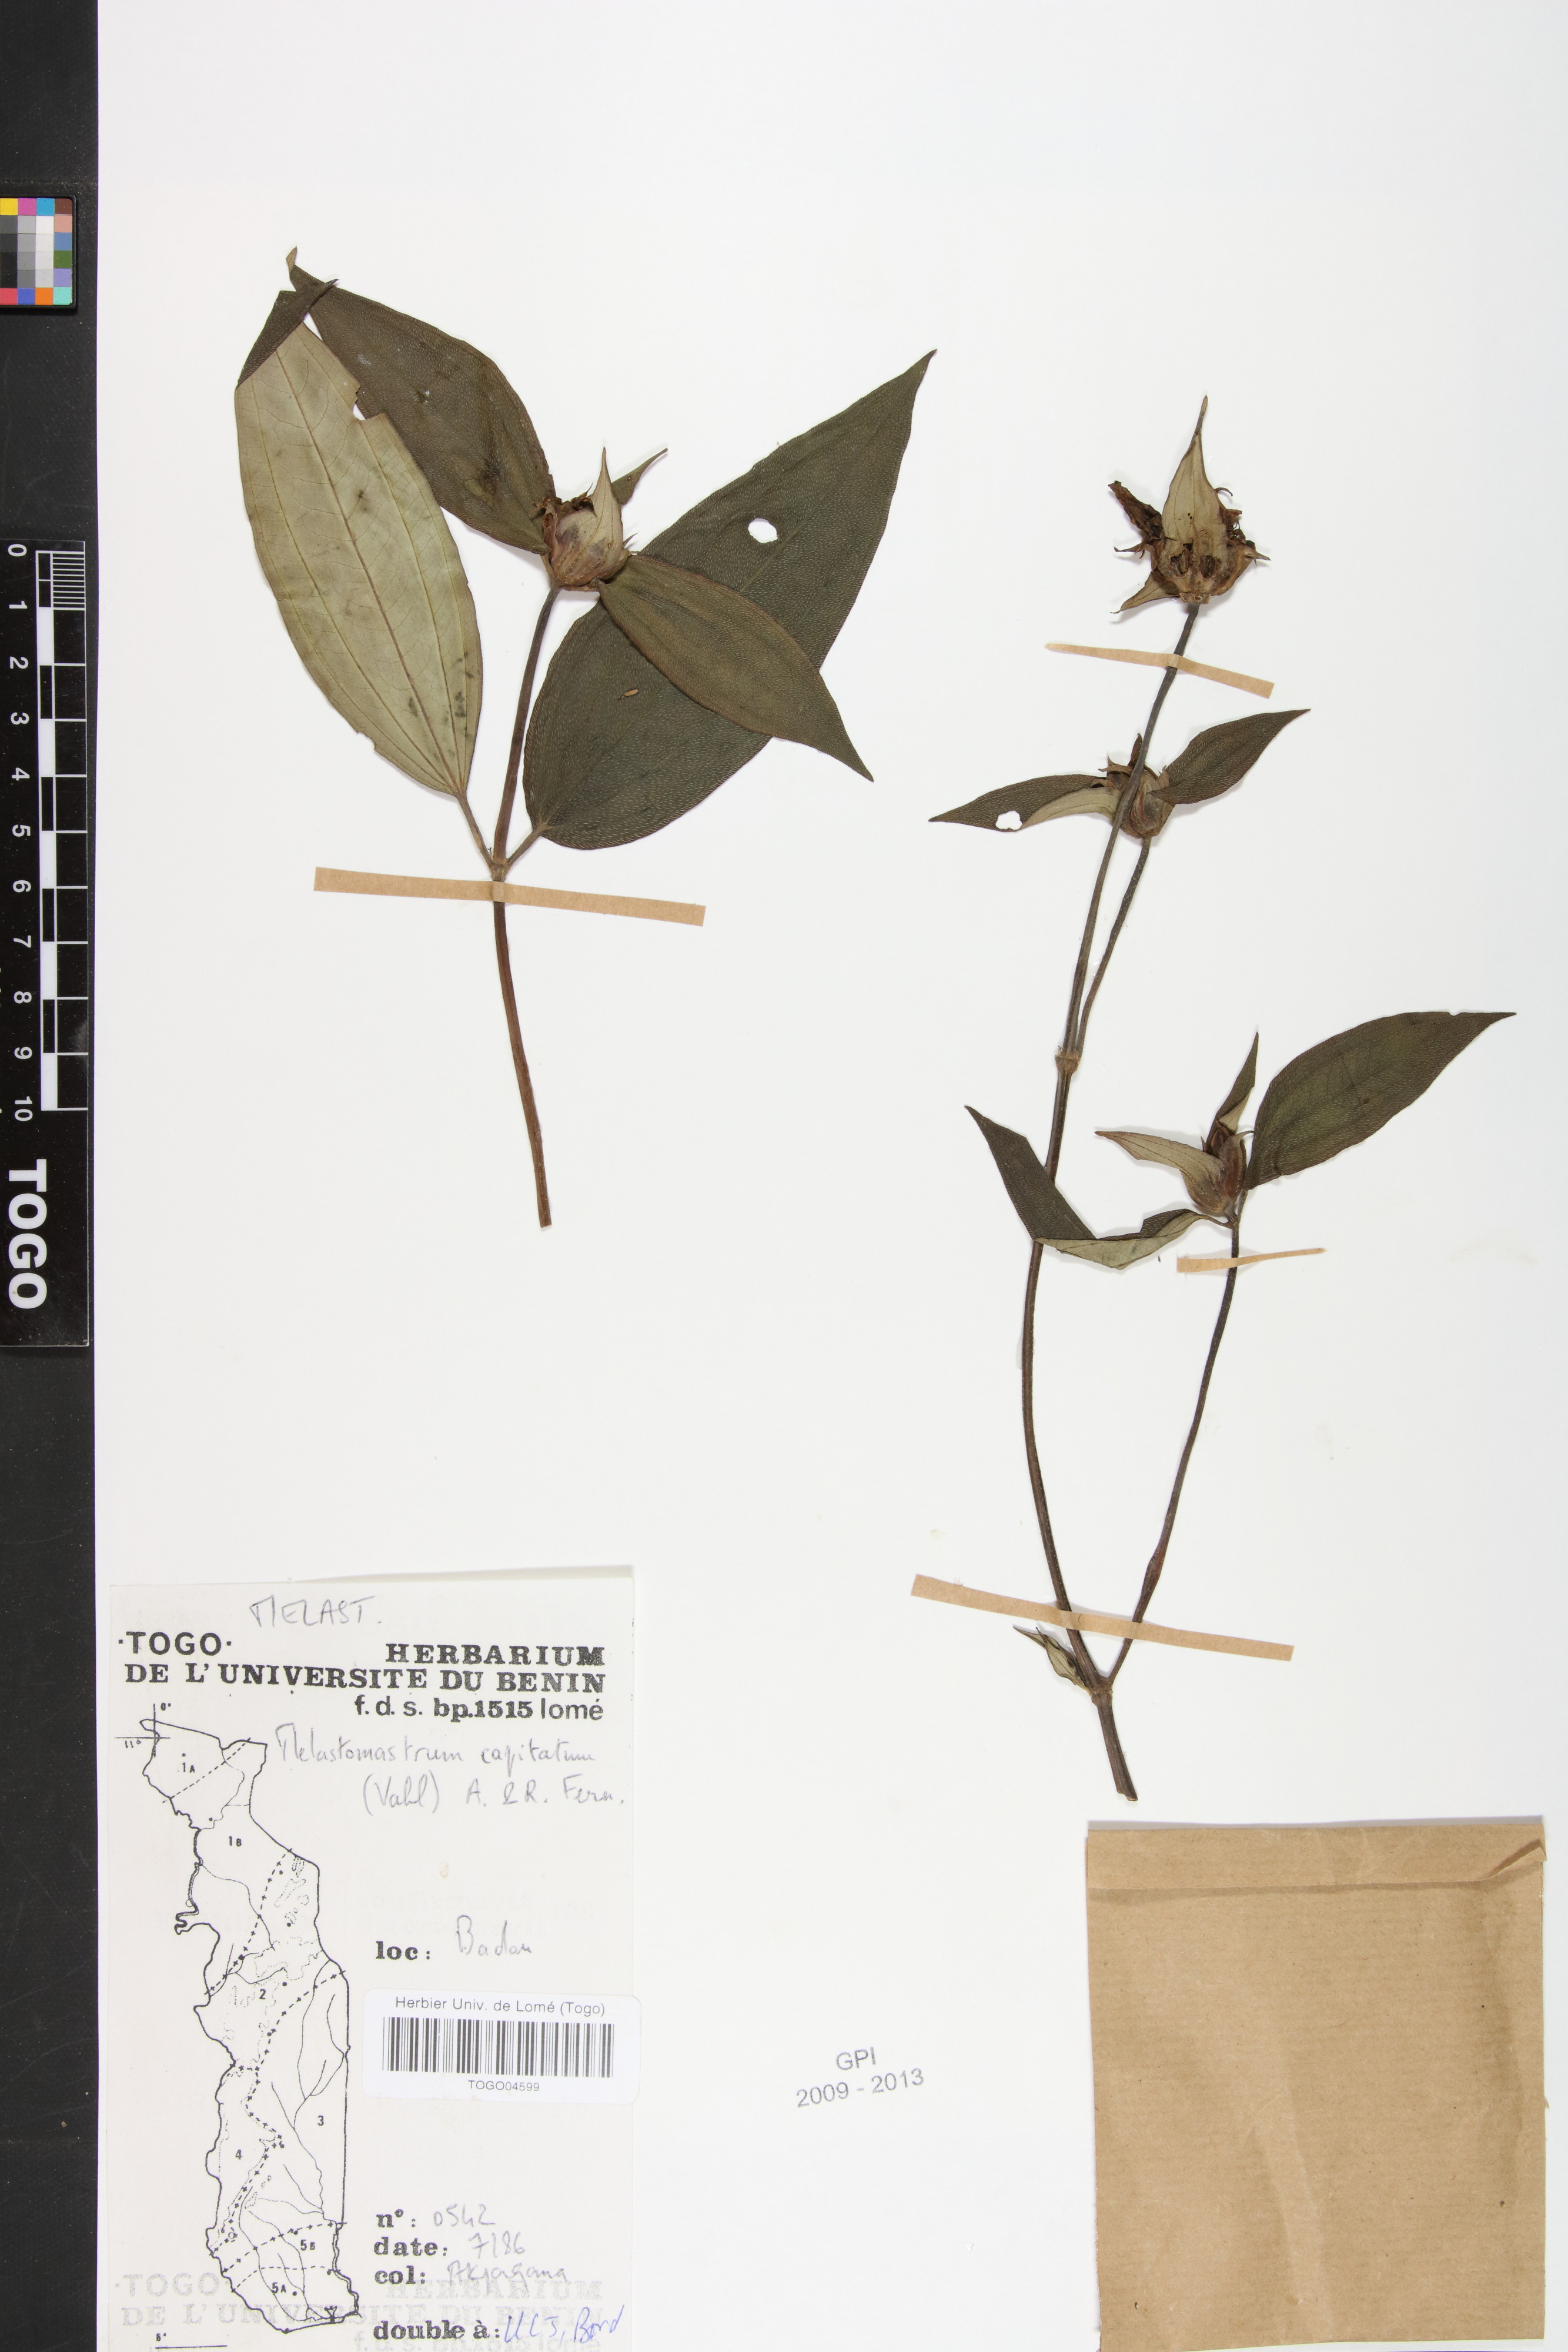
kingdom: Plantae
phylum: Tracheophyta
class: Magnoliopsida
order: Myrtales
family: Melastomataceae
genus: Melastomastrum
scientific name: Melastomastrum capitatum
